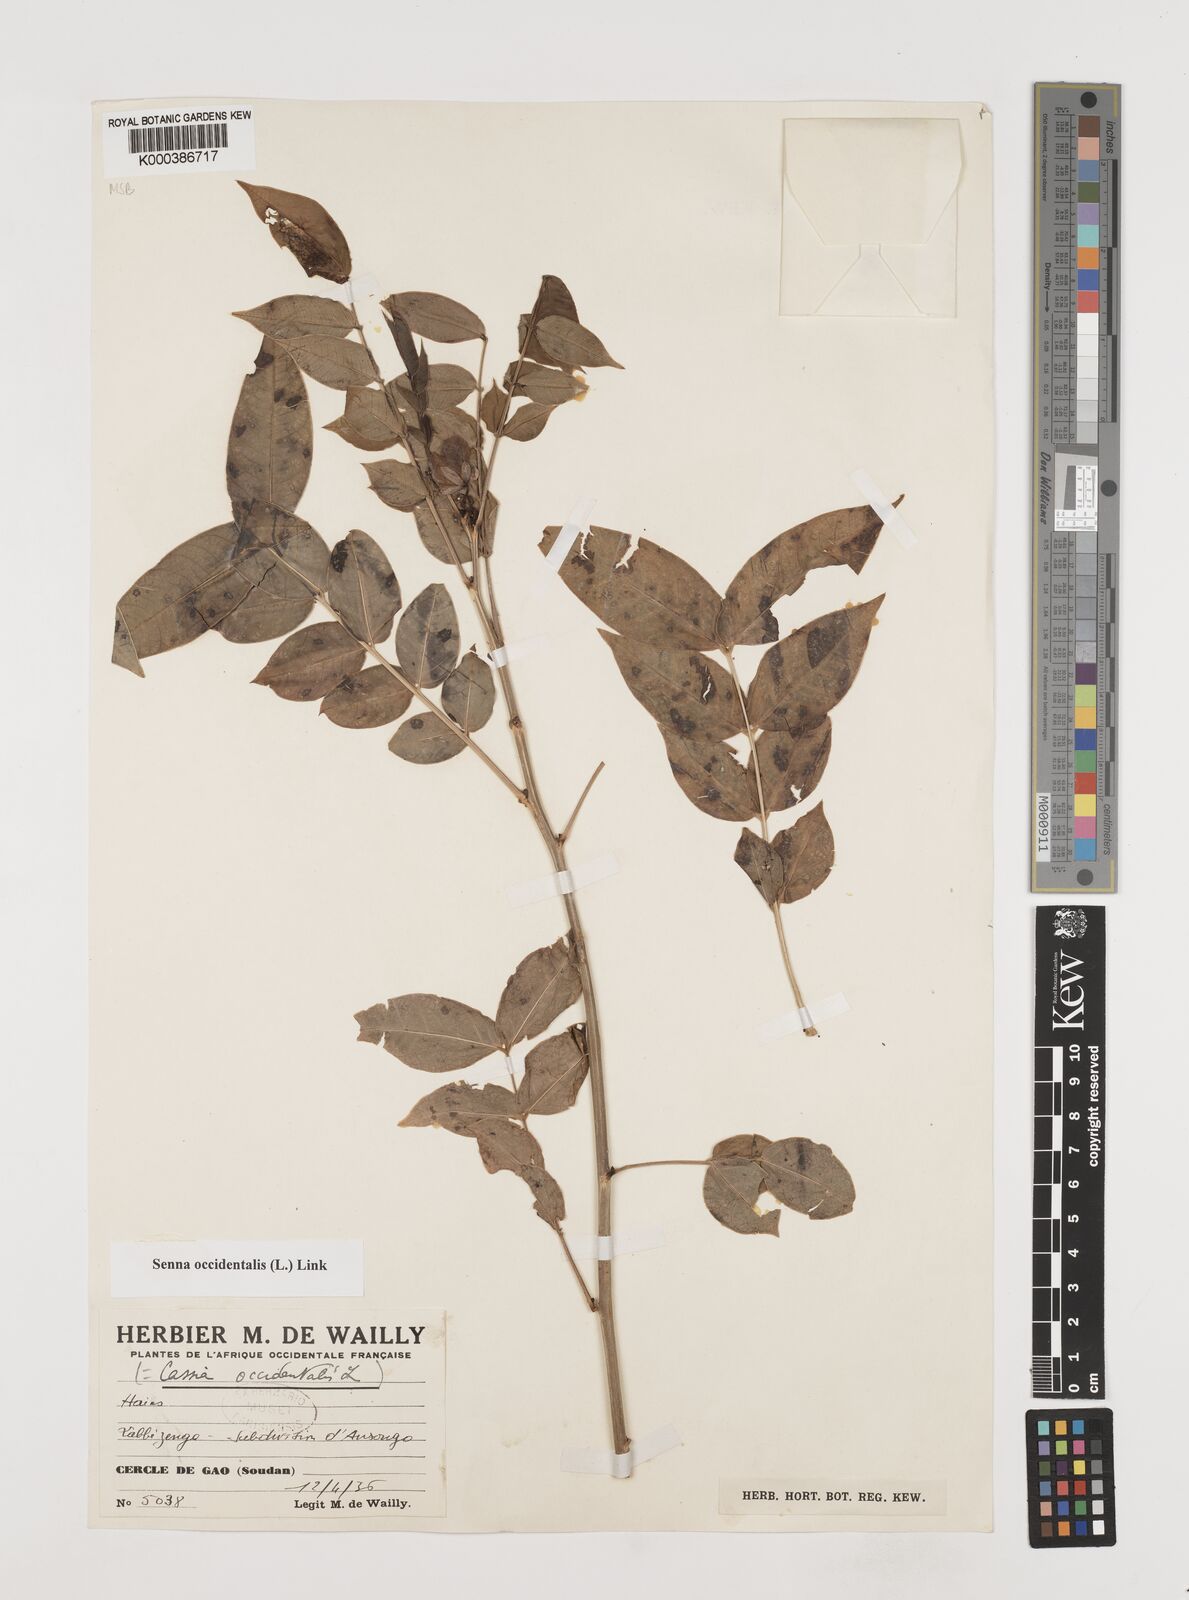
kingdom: Plantae
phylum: Tracheophyta
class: Magnoliopsida
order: Fabales
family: Fabaceae
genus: Senna
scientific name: Senna occidentalis
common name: Septicweed
